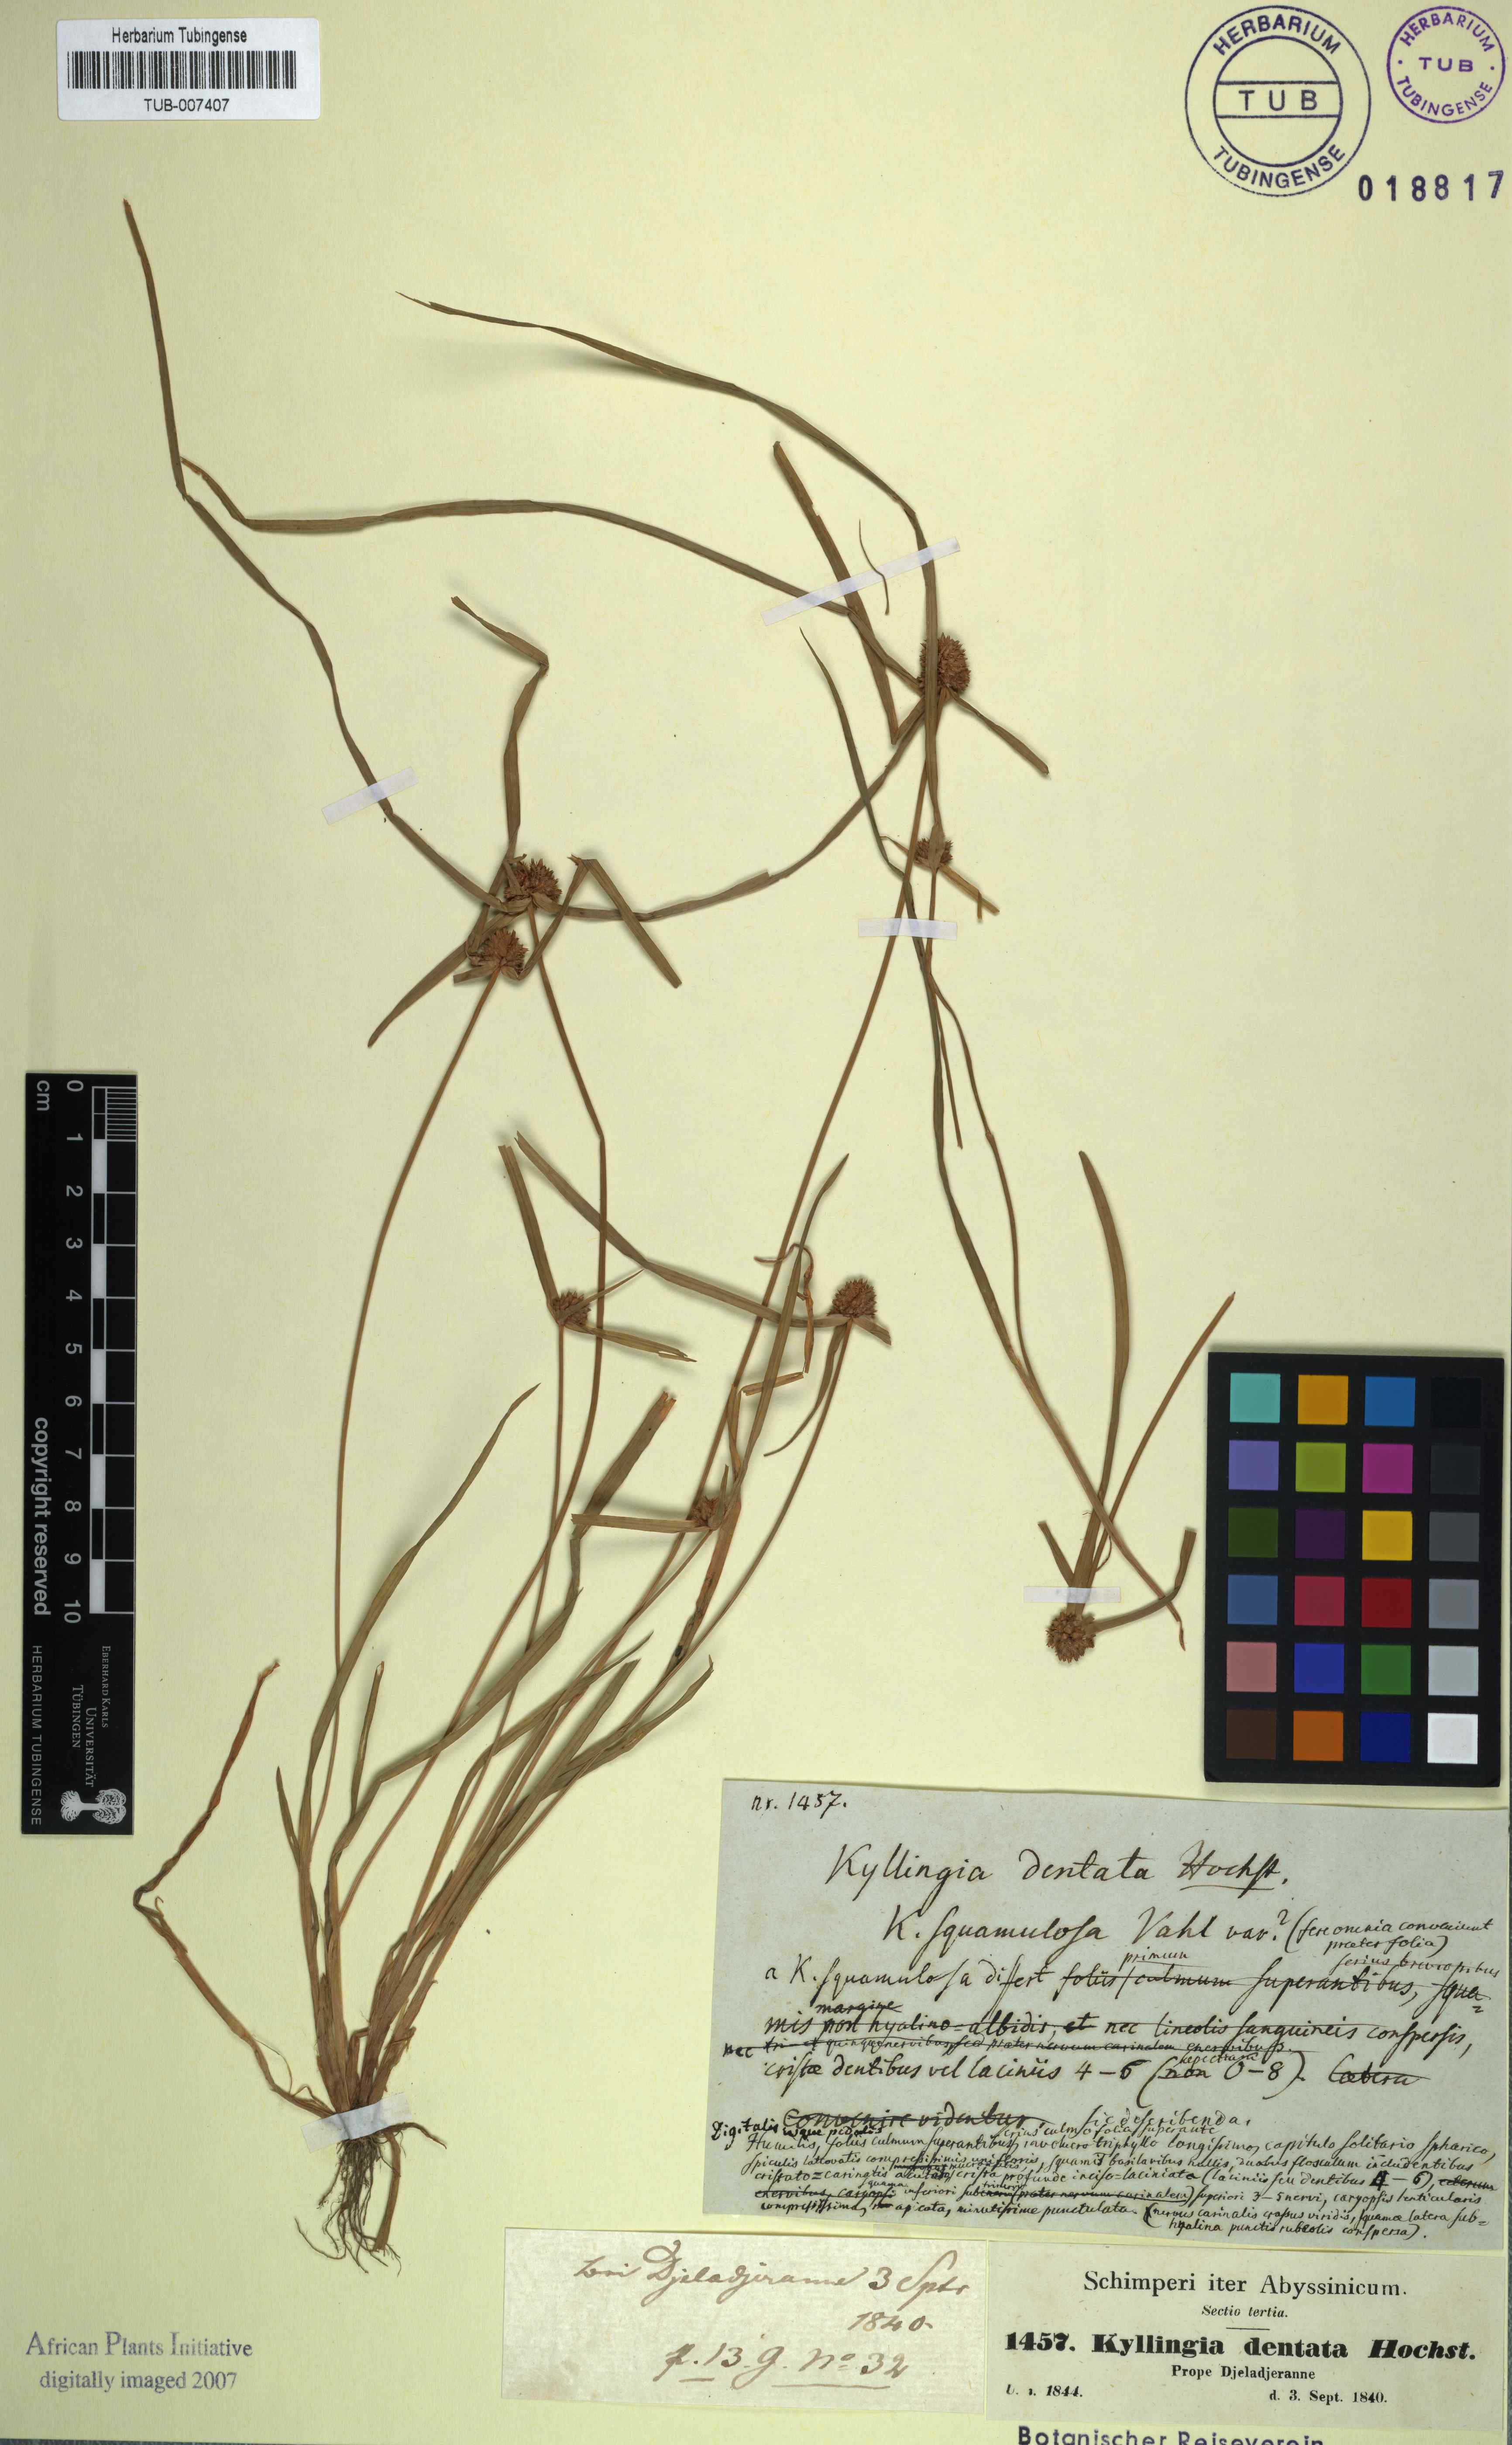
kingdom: Plantae
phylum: Tracheophyta
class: Liliopsida
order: Poales
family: Cyperaceae
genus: Cyperus
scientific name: Cyperus metzii
